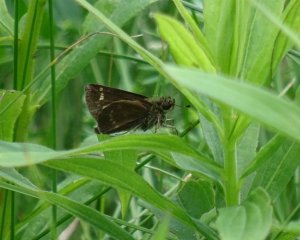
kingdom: Animalia
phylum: Arthropoda
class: Insecta
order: Lepidoptera
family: Hesperiidae
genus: Polites
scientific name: Polites egeremet
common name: Northern Broken-Dash
